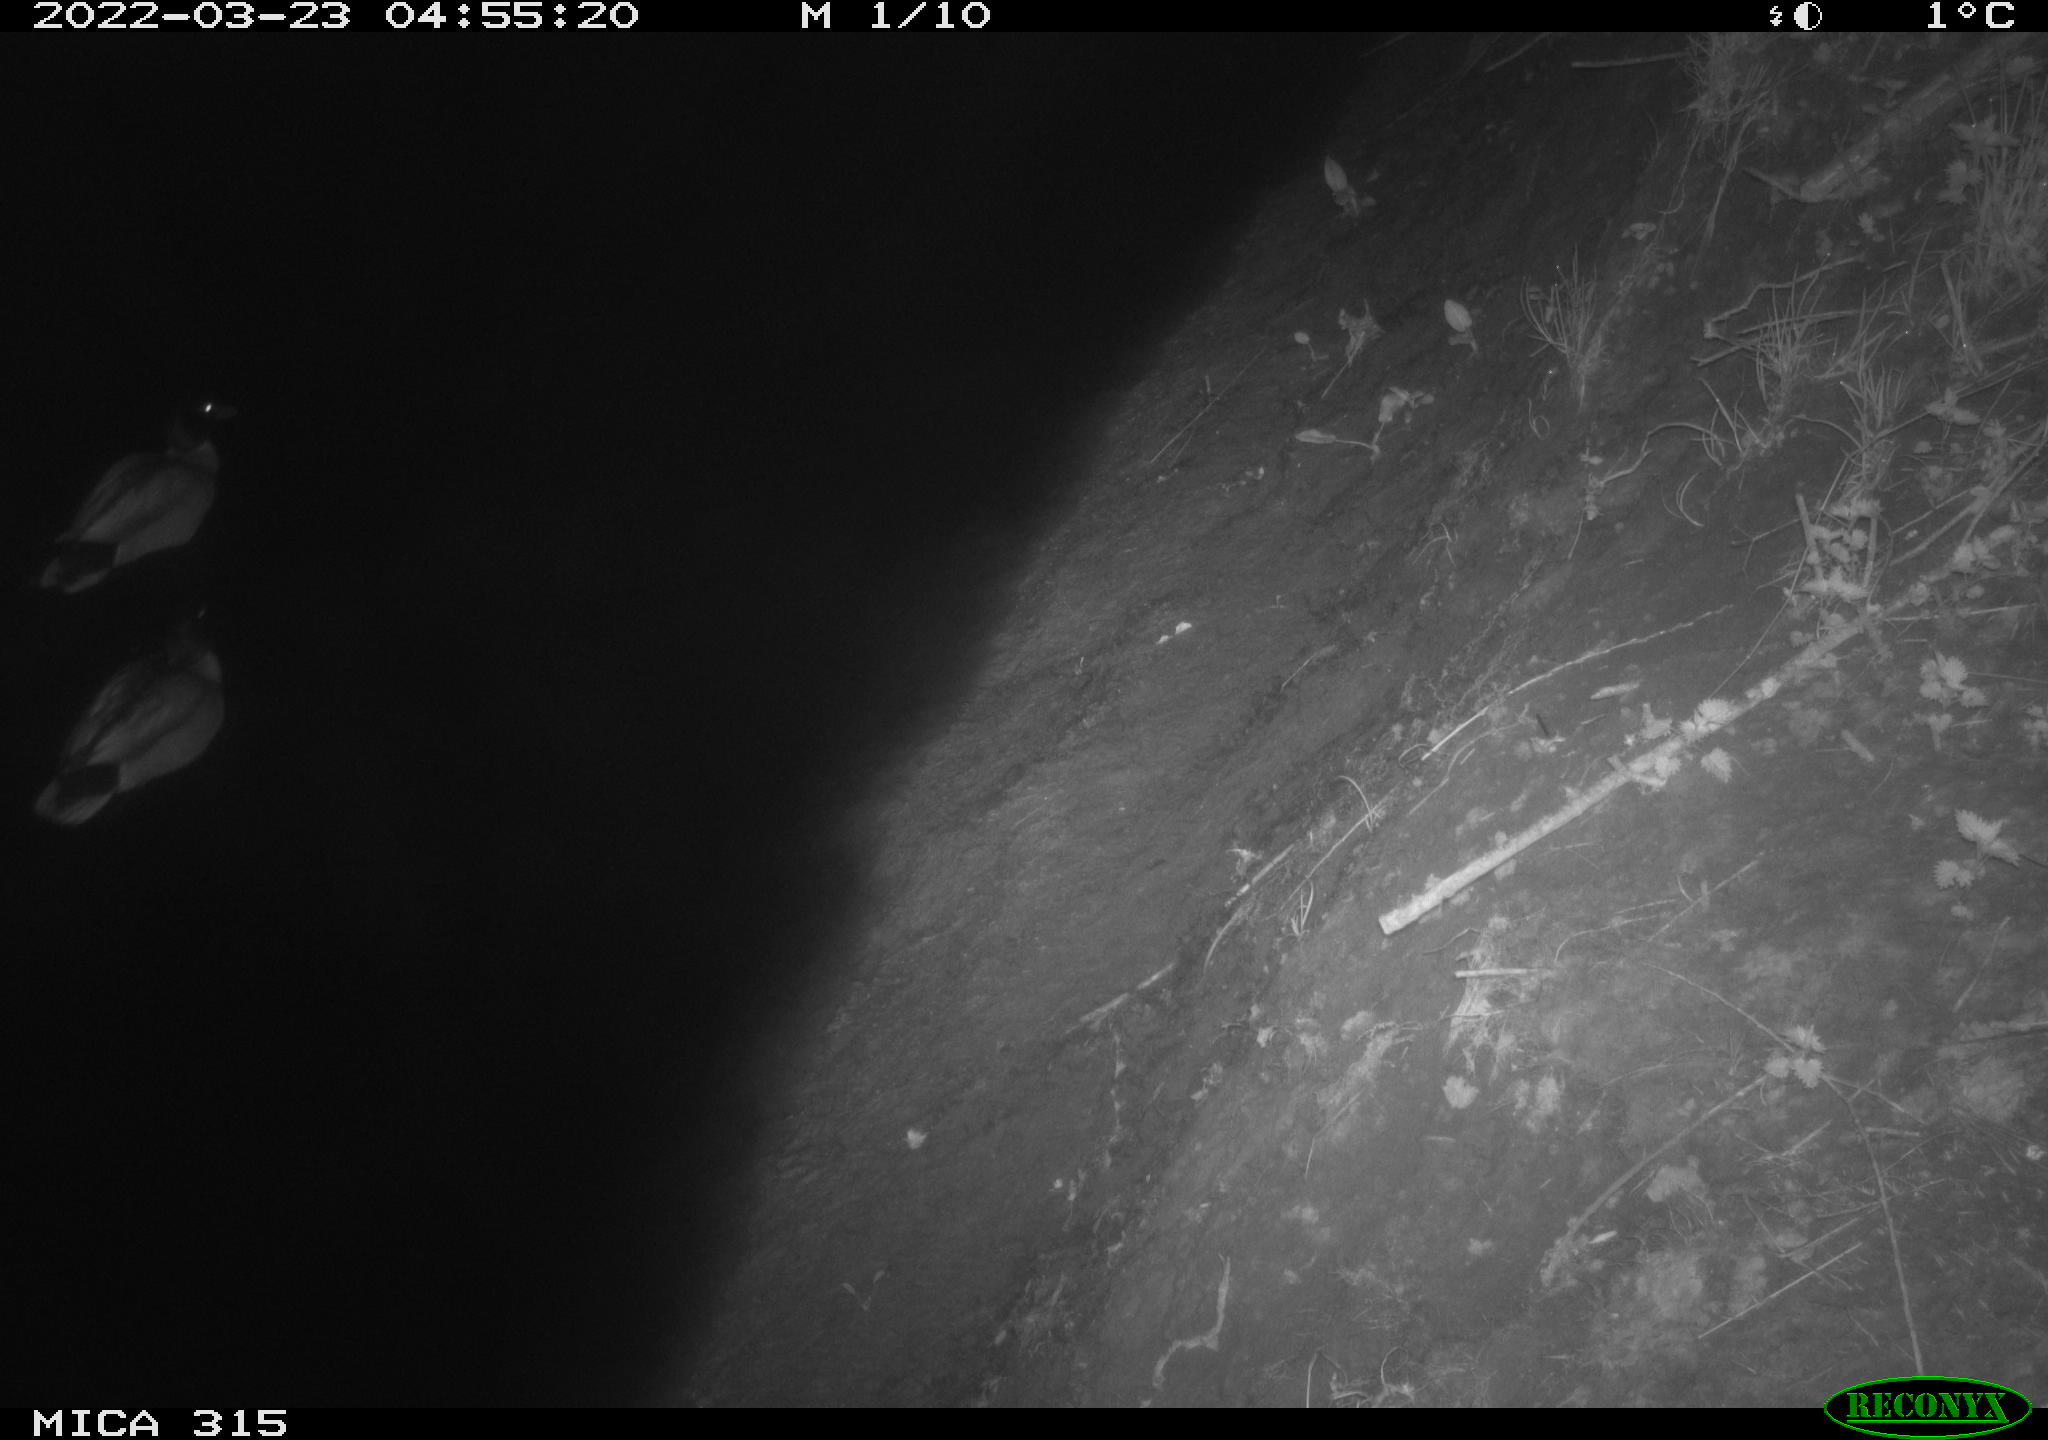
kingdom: Animalia
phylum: Chordata
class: Aves
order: Anseriformes
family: Anatidae
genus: Anas
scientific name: Anas platyrhynchos
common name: Mallard
